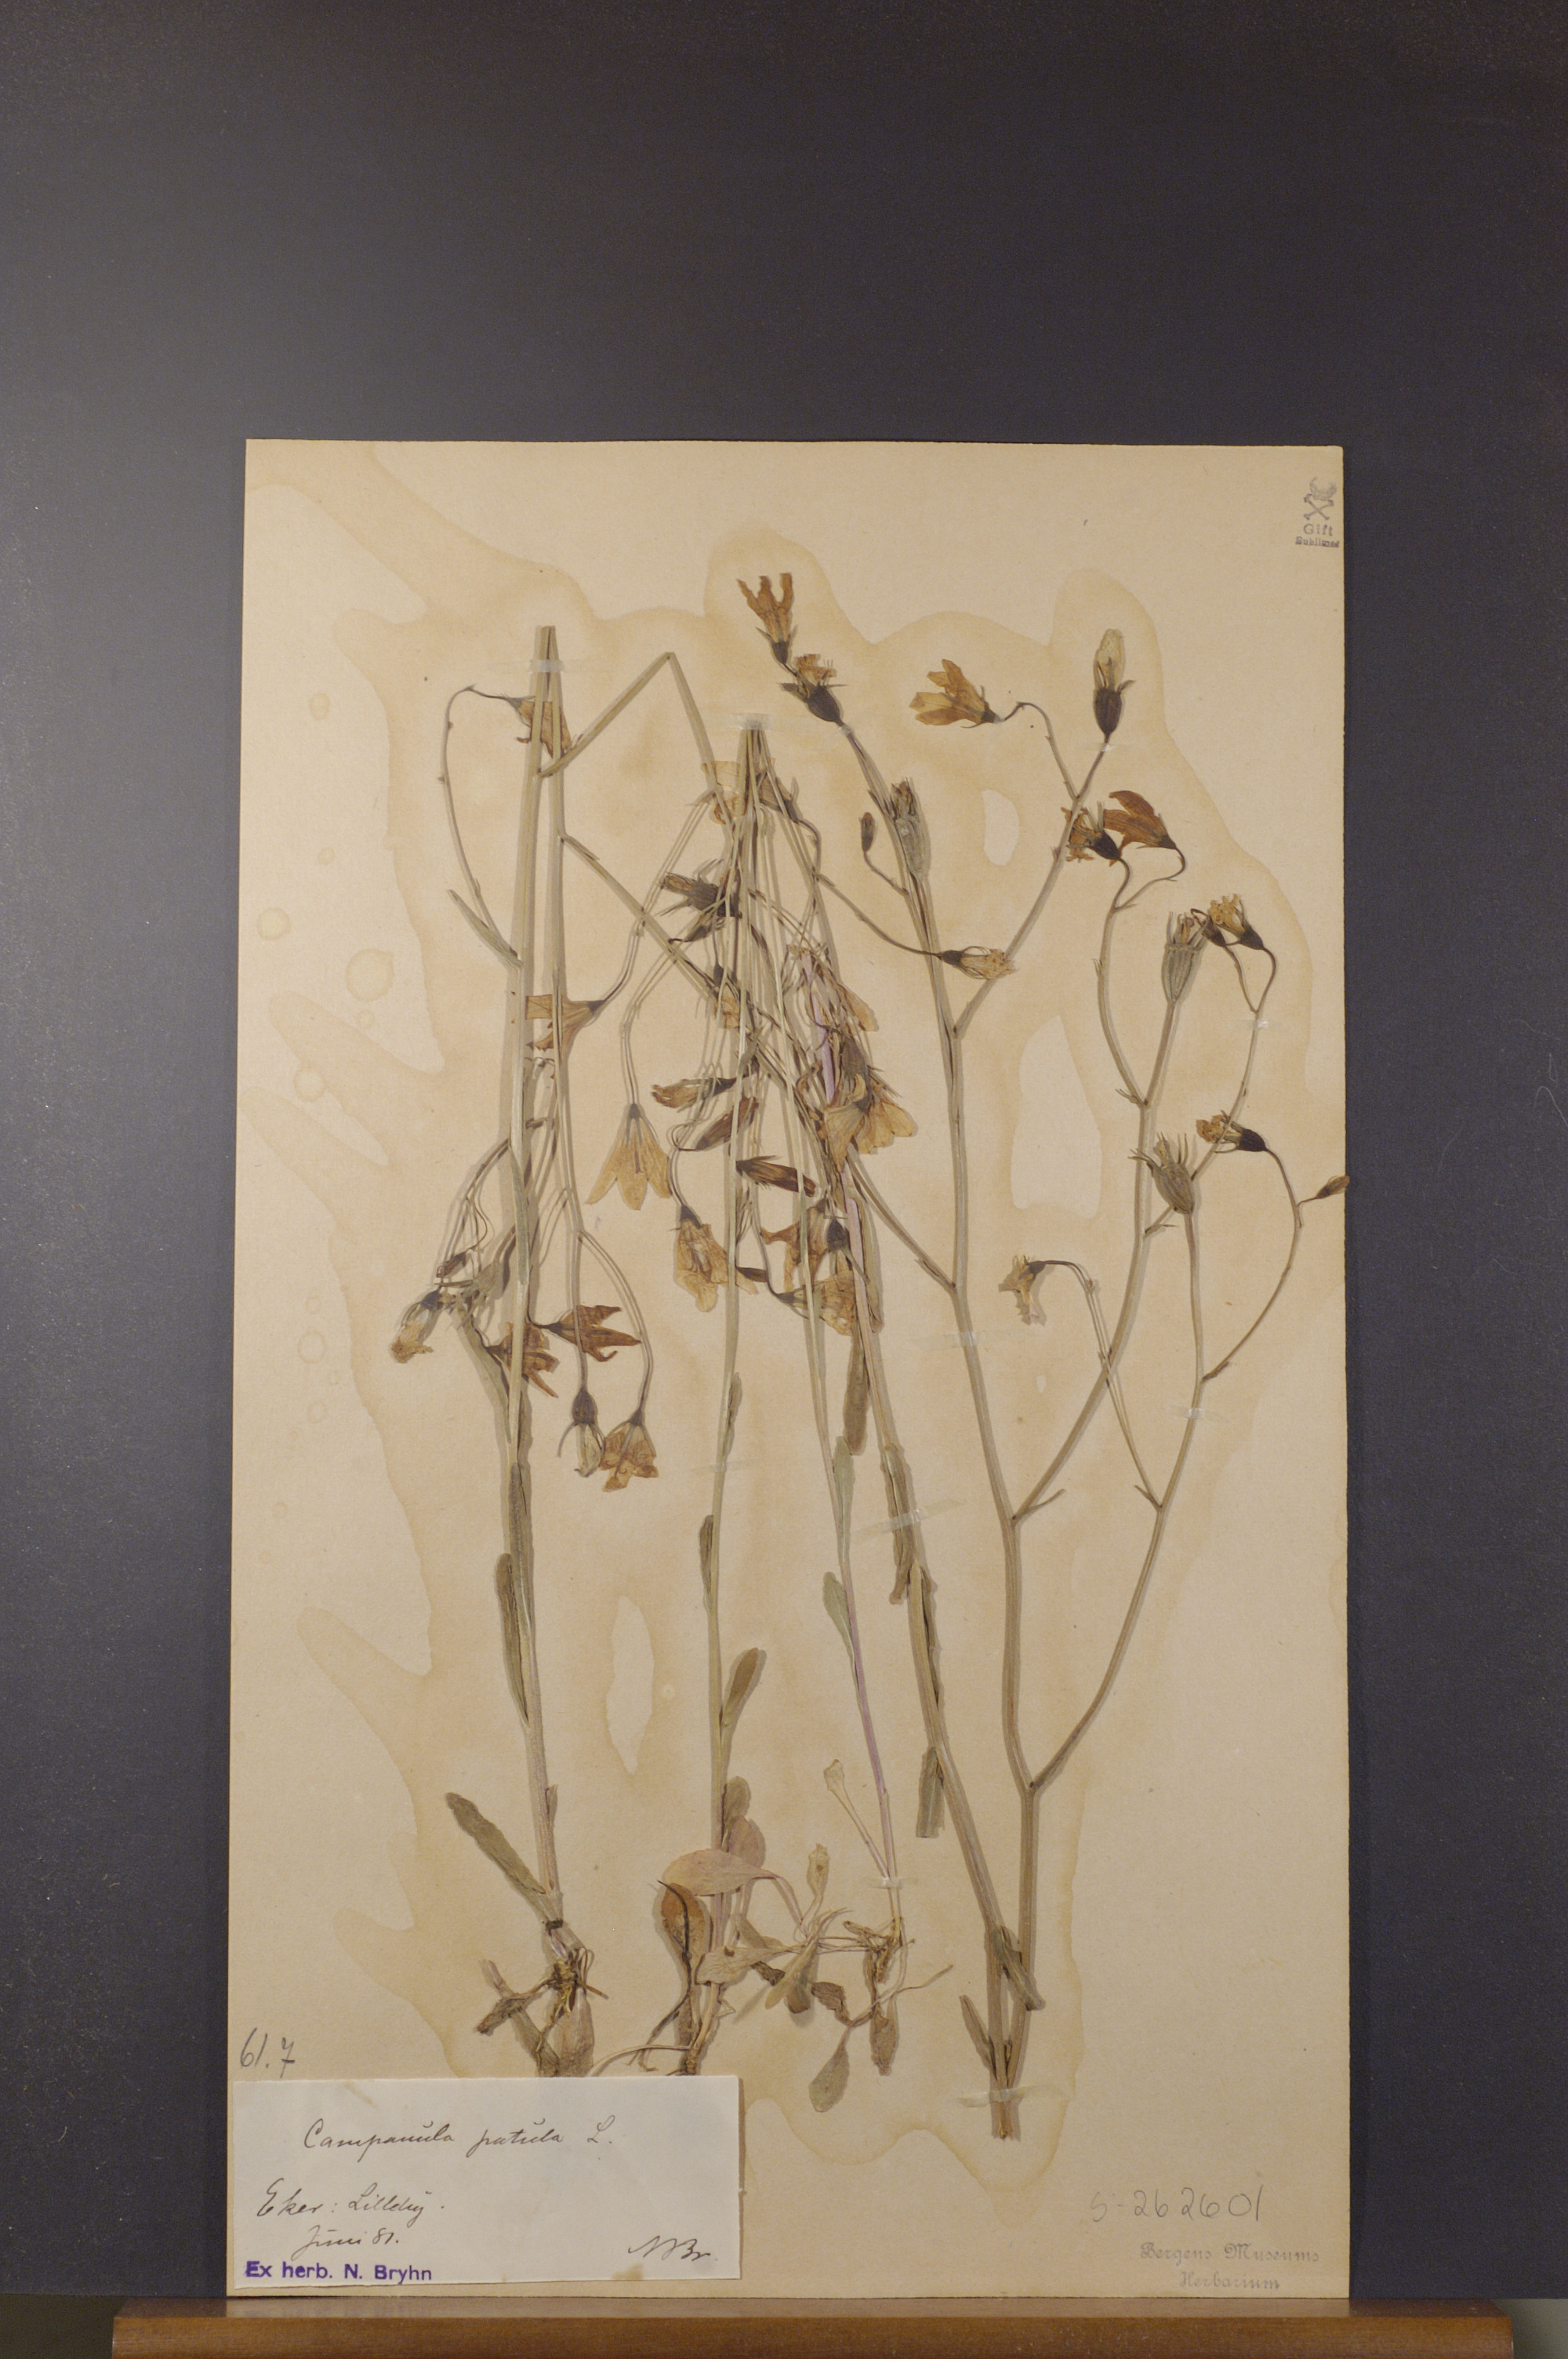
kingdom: Plantae
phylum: Tracheophyta
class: Magnoliopsida
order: Asterales
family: Campanulaceae
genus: Campanula
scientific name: Campanula patula
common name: Spreading bellflower
